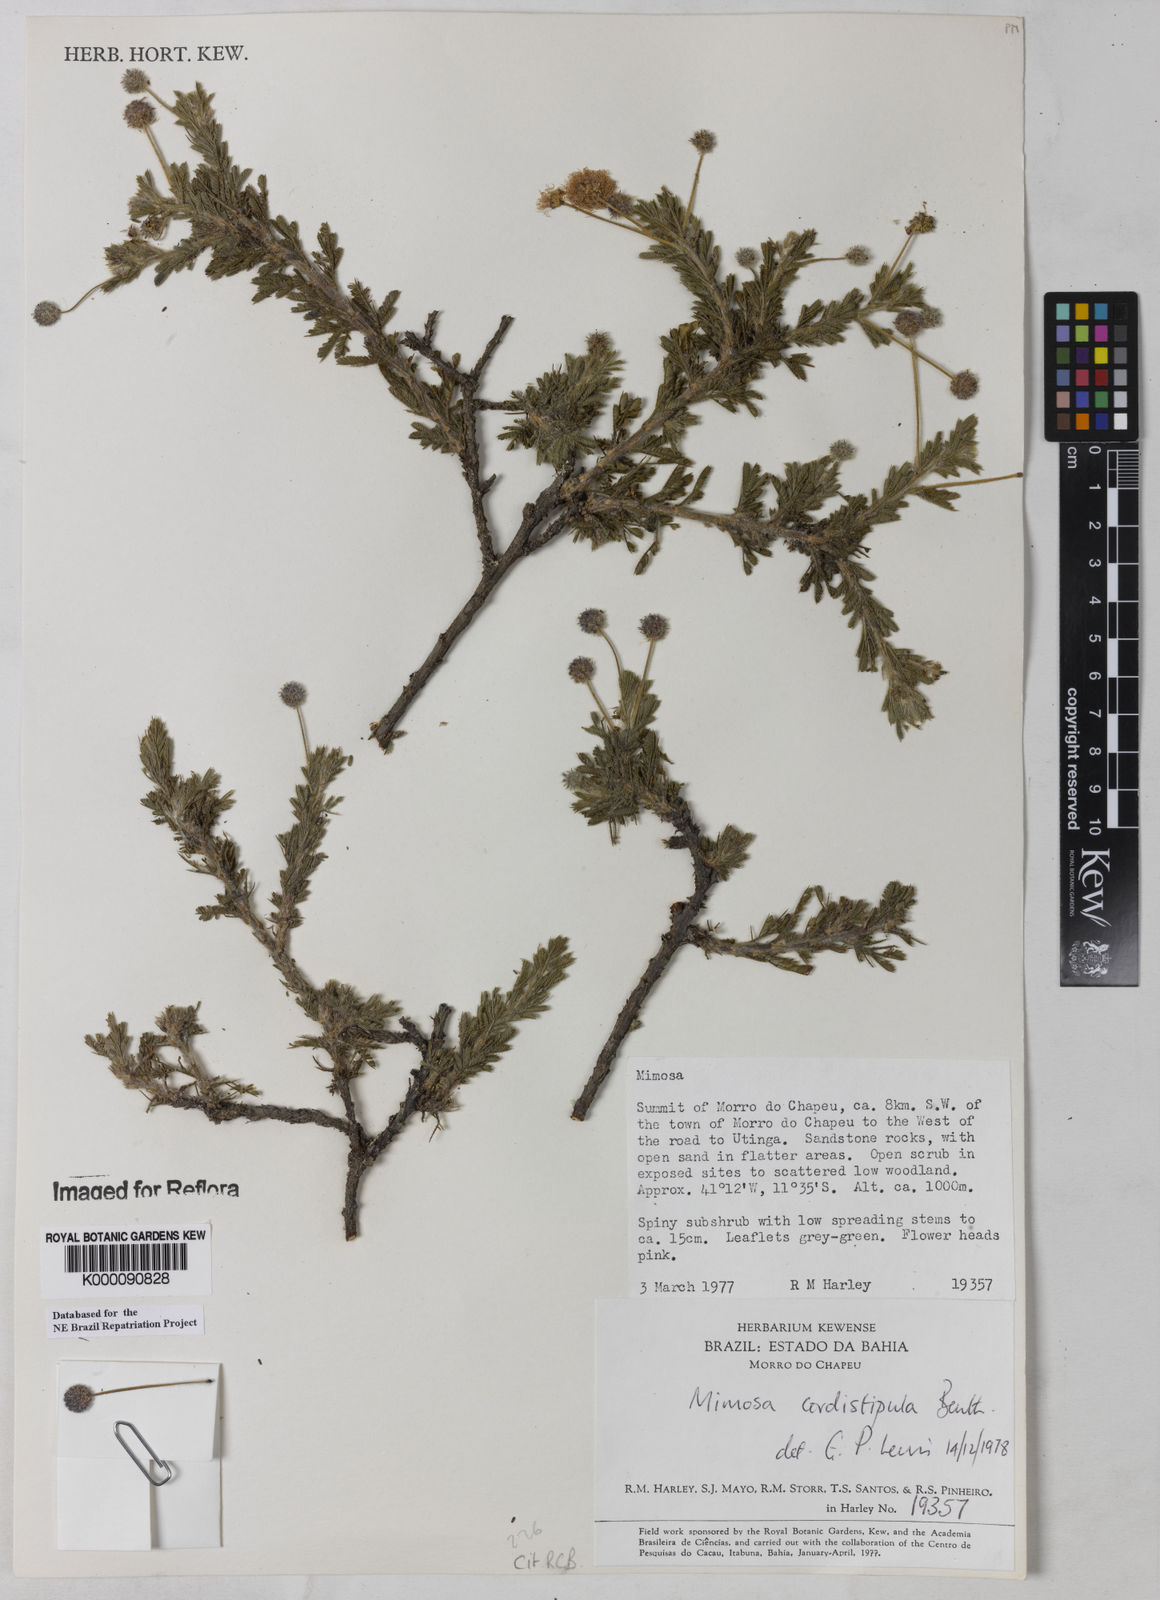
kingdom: Plantae
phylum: Tracheophyta
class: Magnoliopsida
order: Fabales
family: Fabaceae
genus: Mimosa
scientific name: Mimosa cordistipula
